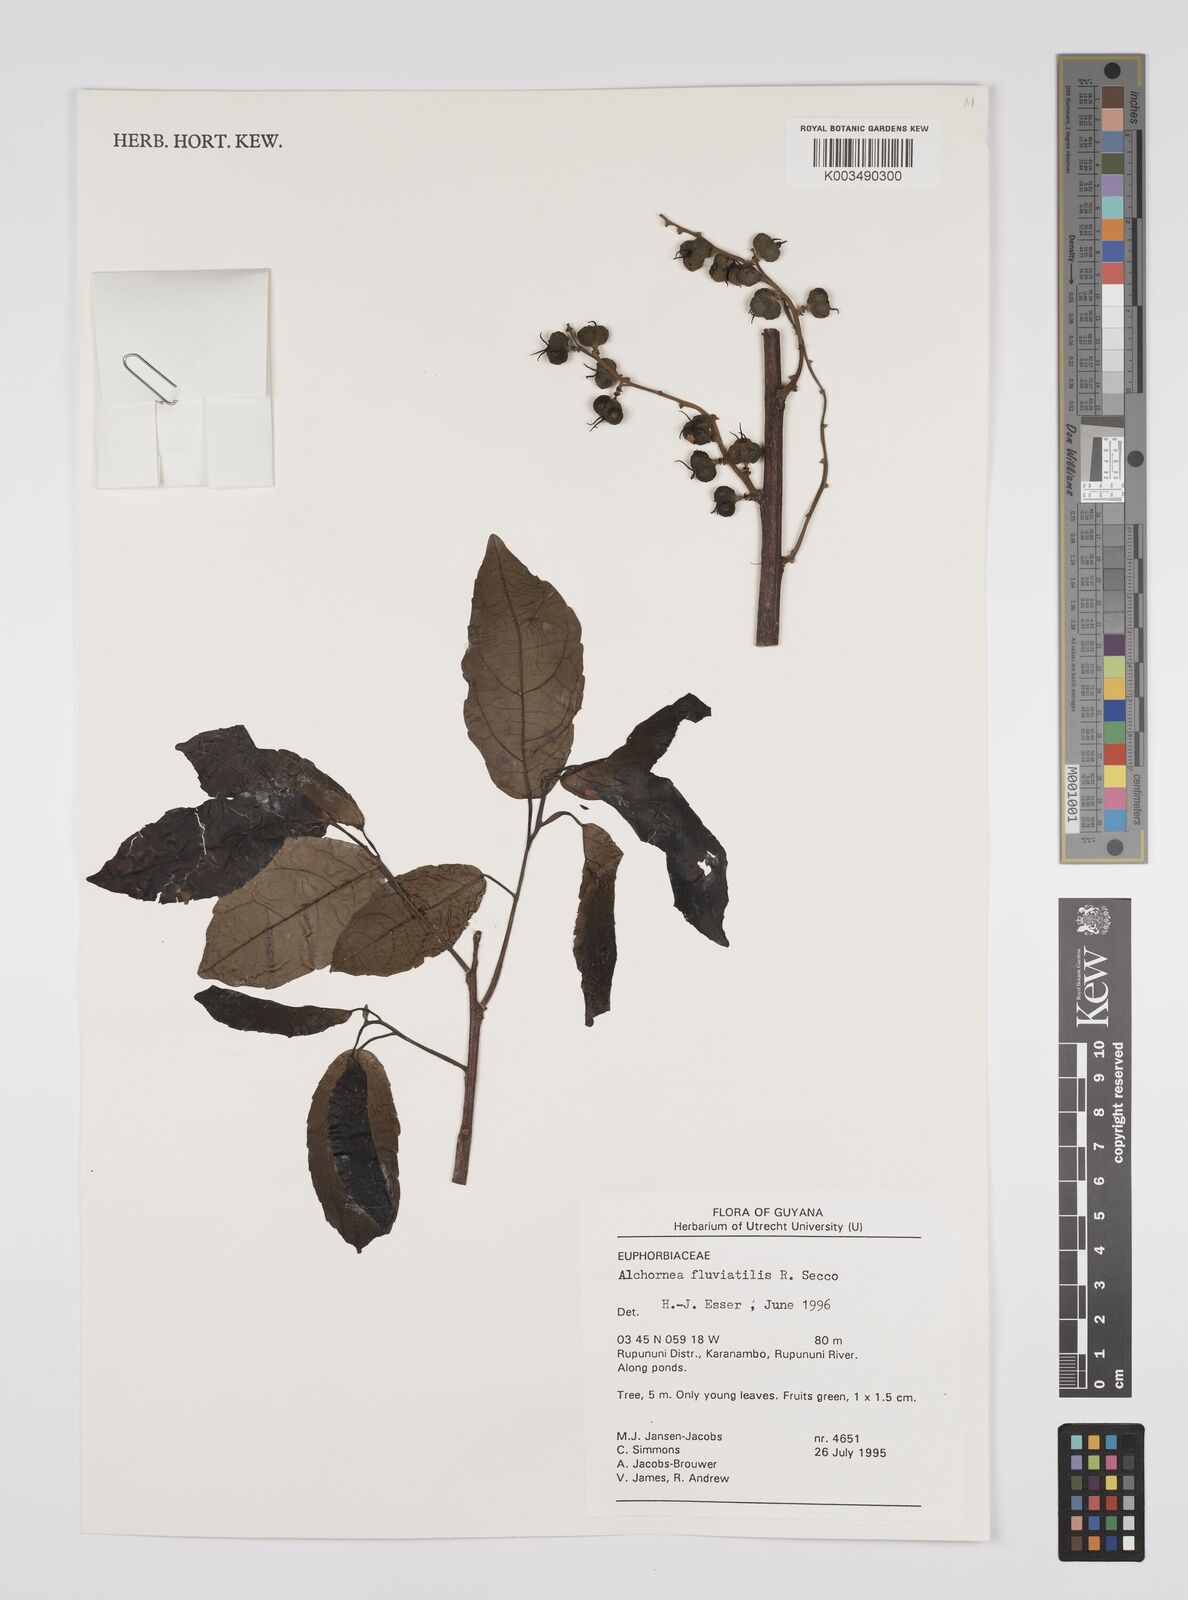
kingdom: Plantae
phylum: Tracheophyta
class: Magnoliopsida
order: Malpighiales
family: Euphorbiaceae
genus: Alchornea
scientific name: Alchornea fluviatilis
